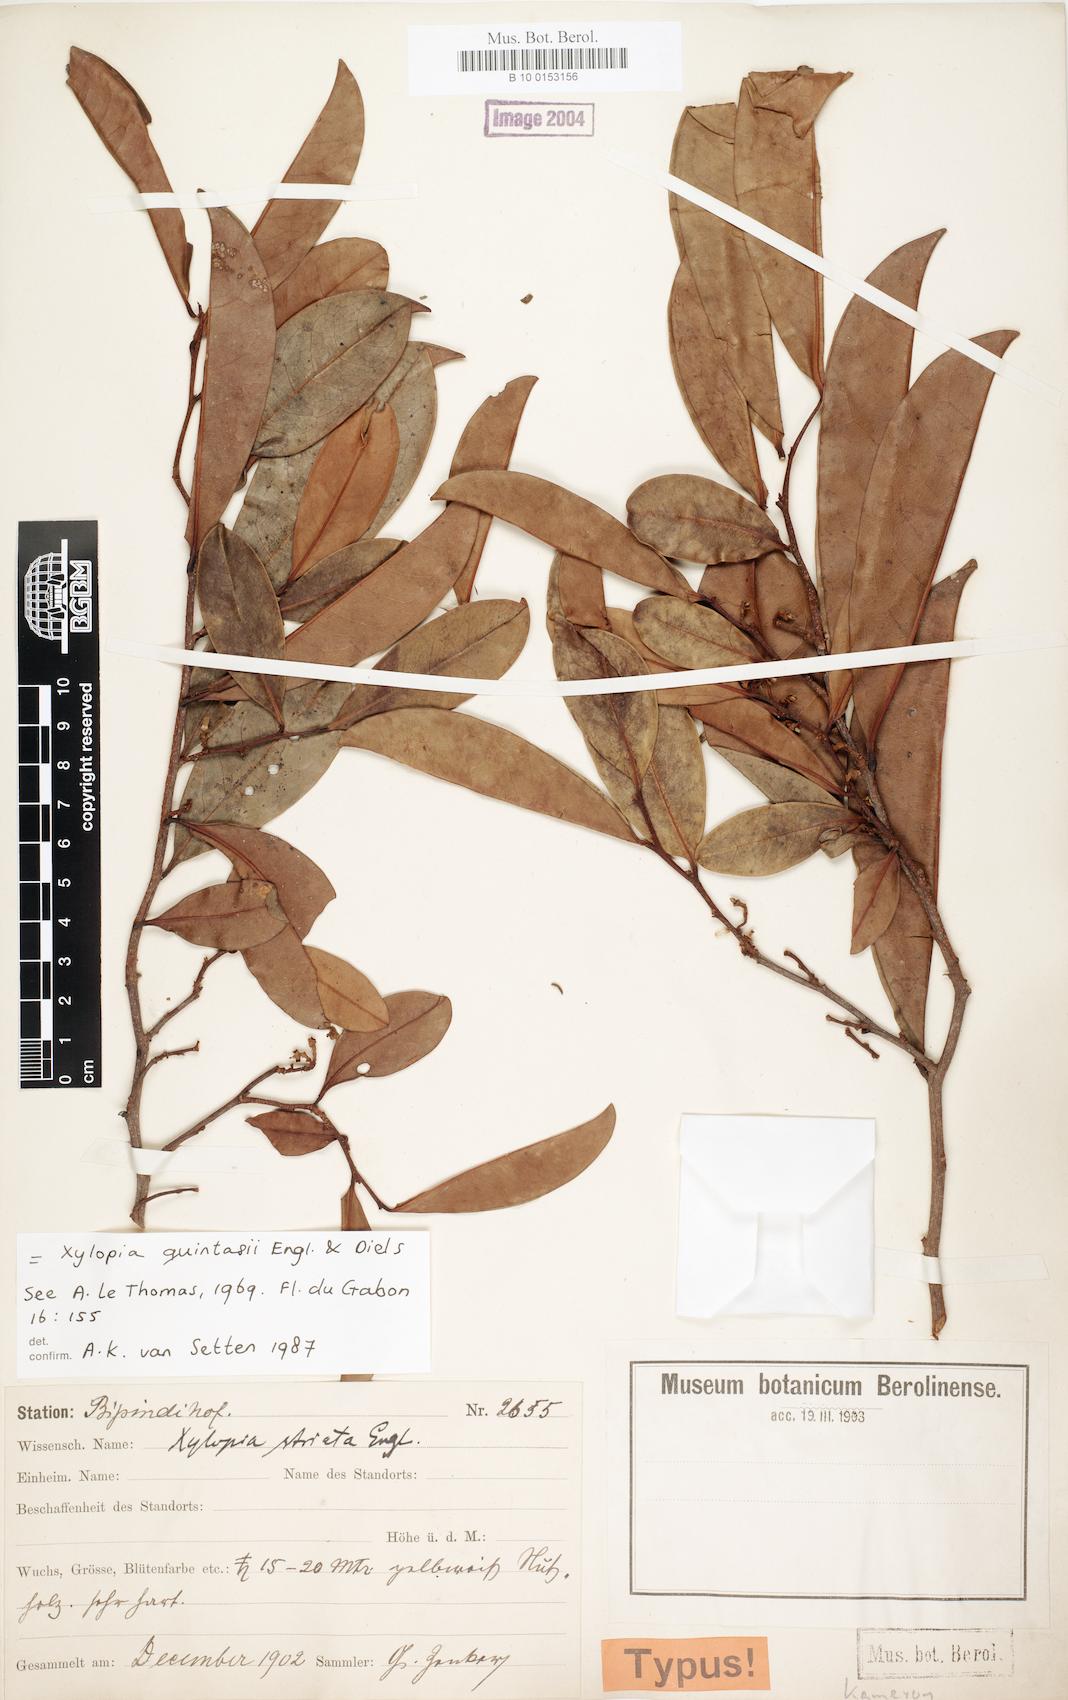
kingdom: Plantae
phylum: Tracheophyta
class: Magnoliopsida
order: Magnoliales
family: Annonaceae
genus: Xylopia
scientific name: Xylopia quintasii
